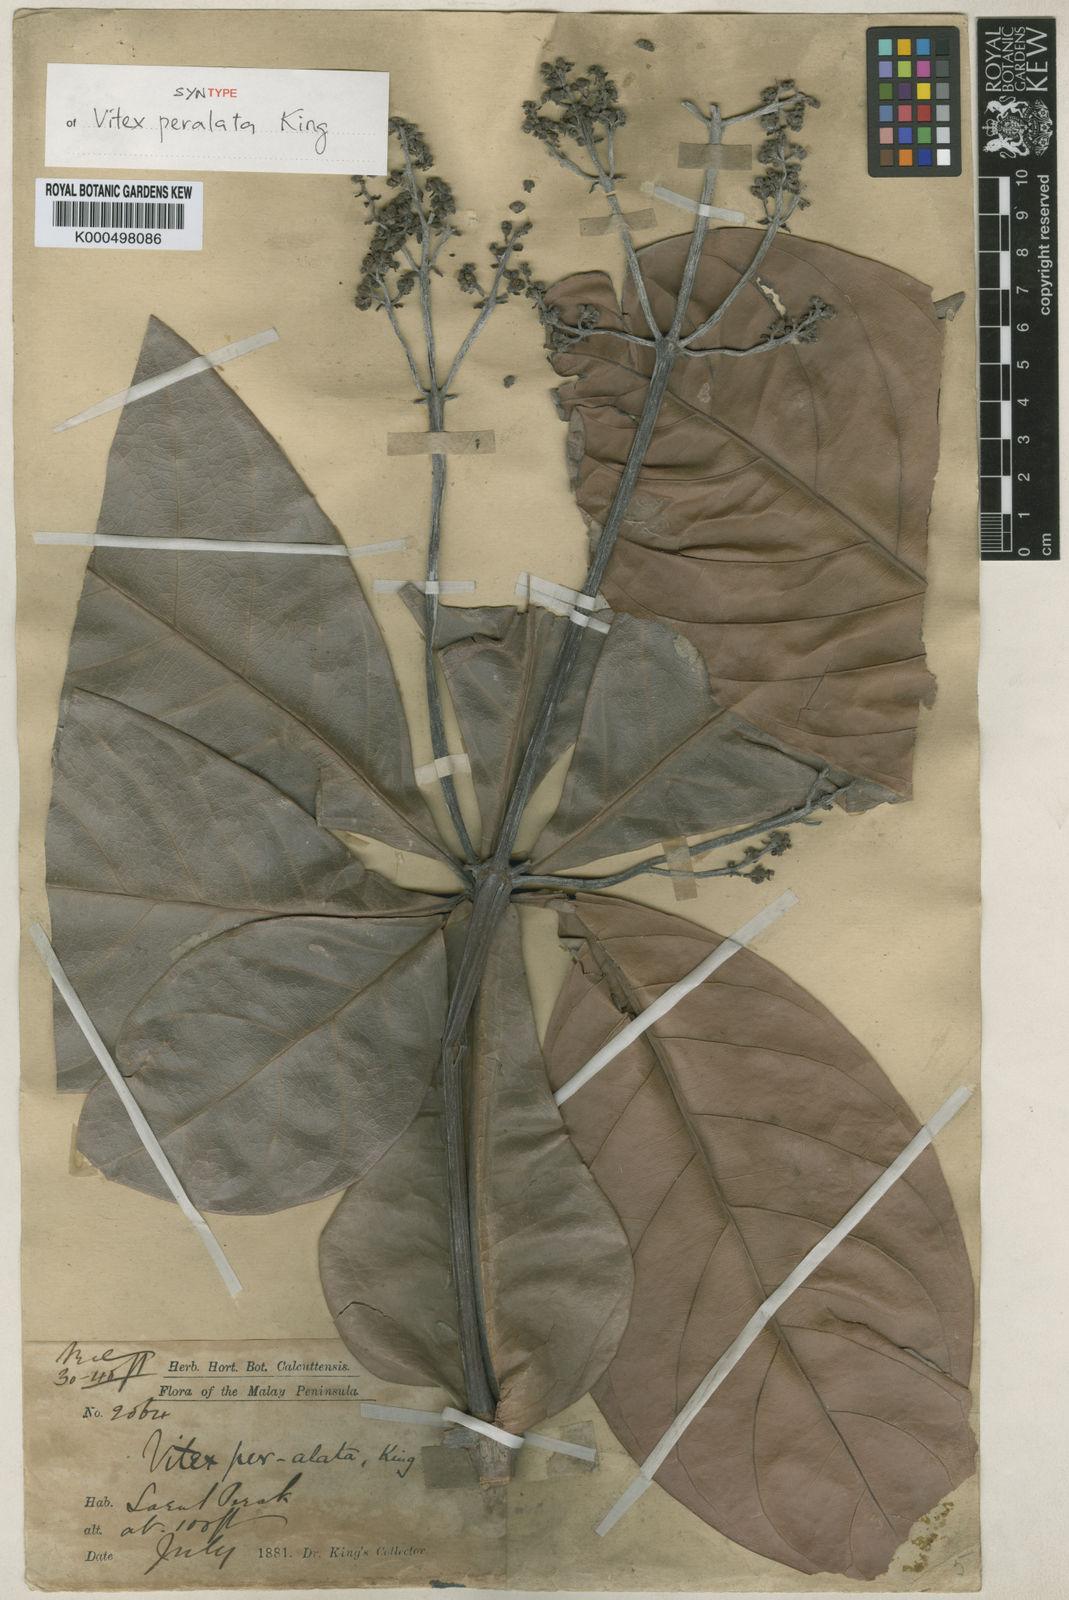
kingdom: Plantae
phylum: Tracheophyta
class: Magnoliopsida
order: Lamiales
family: Lamiaceae
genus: Teijsmanniodendron
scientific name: Teijsmanniodendron pteropodum
